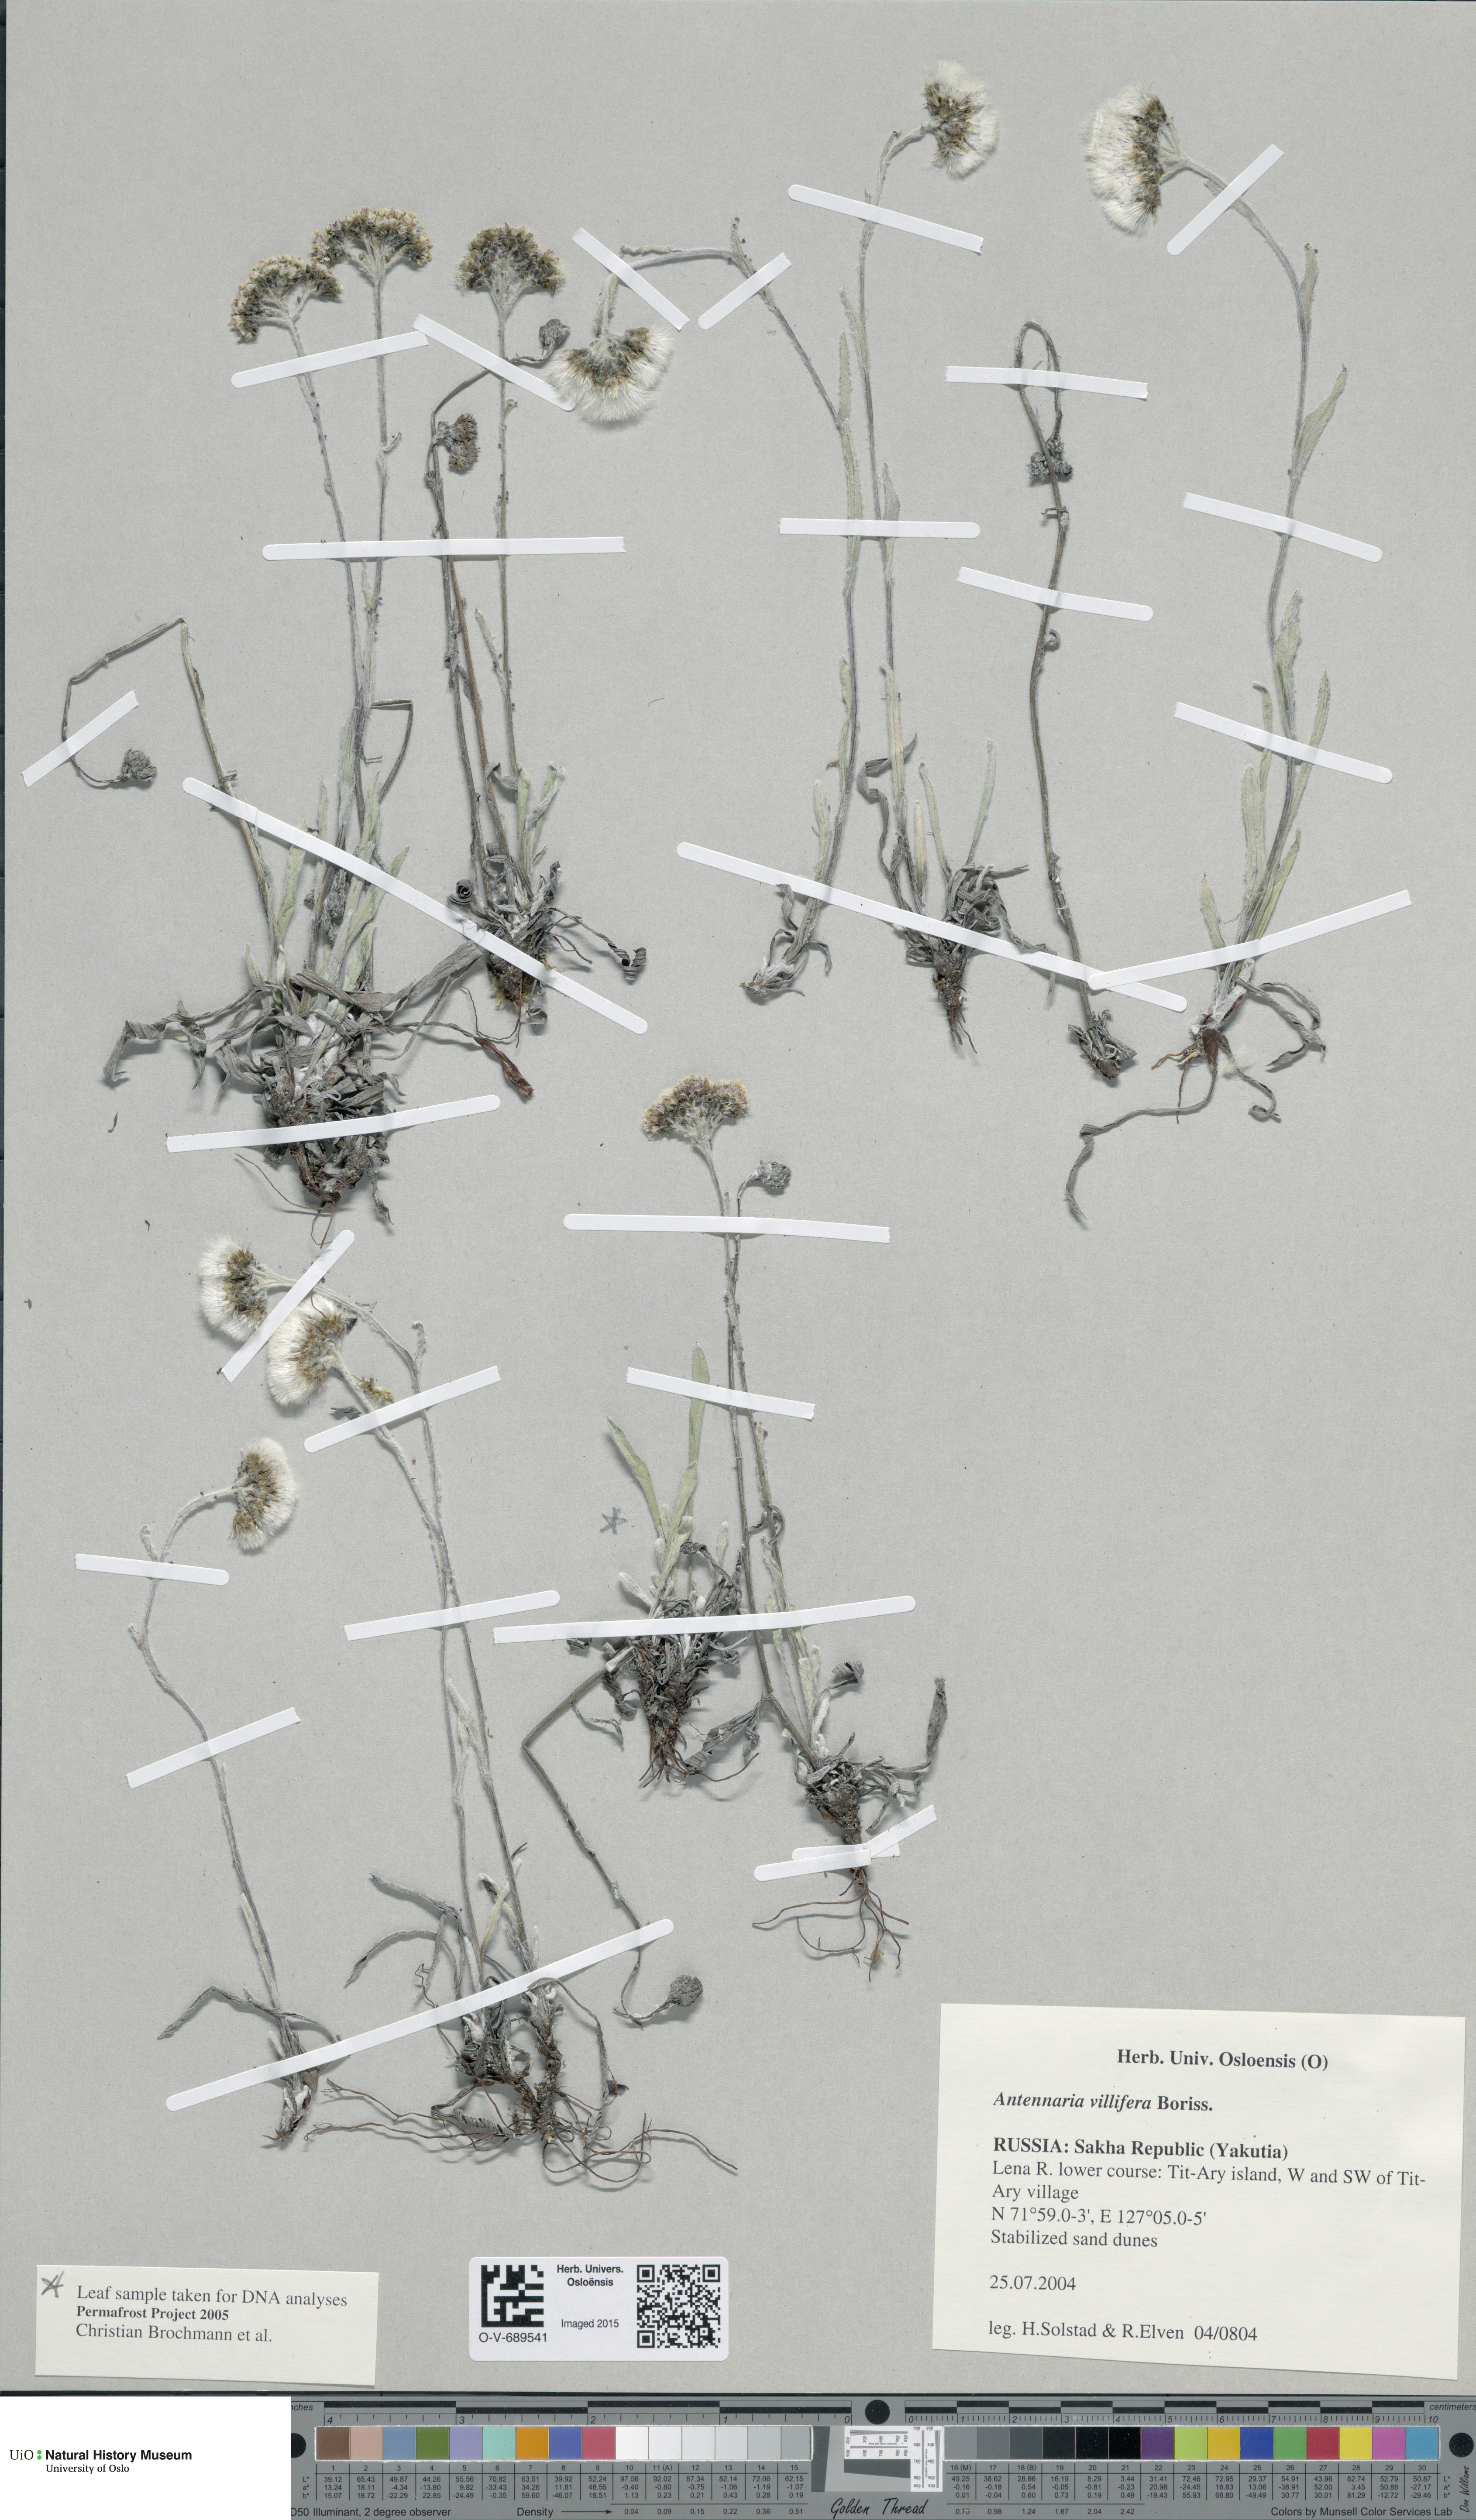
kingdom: Plantae
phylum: Tracheophyta
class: Magnoliopsida
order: Asterales
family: Asteraceae
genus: Antennaria
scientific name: Antennaria lanata
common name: Woolly pussytoes
